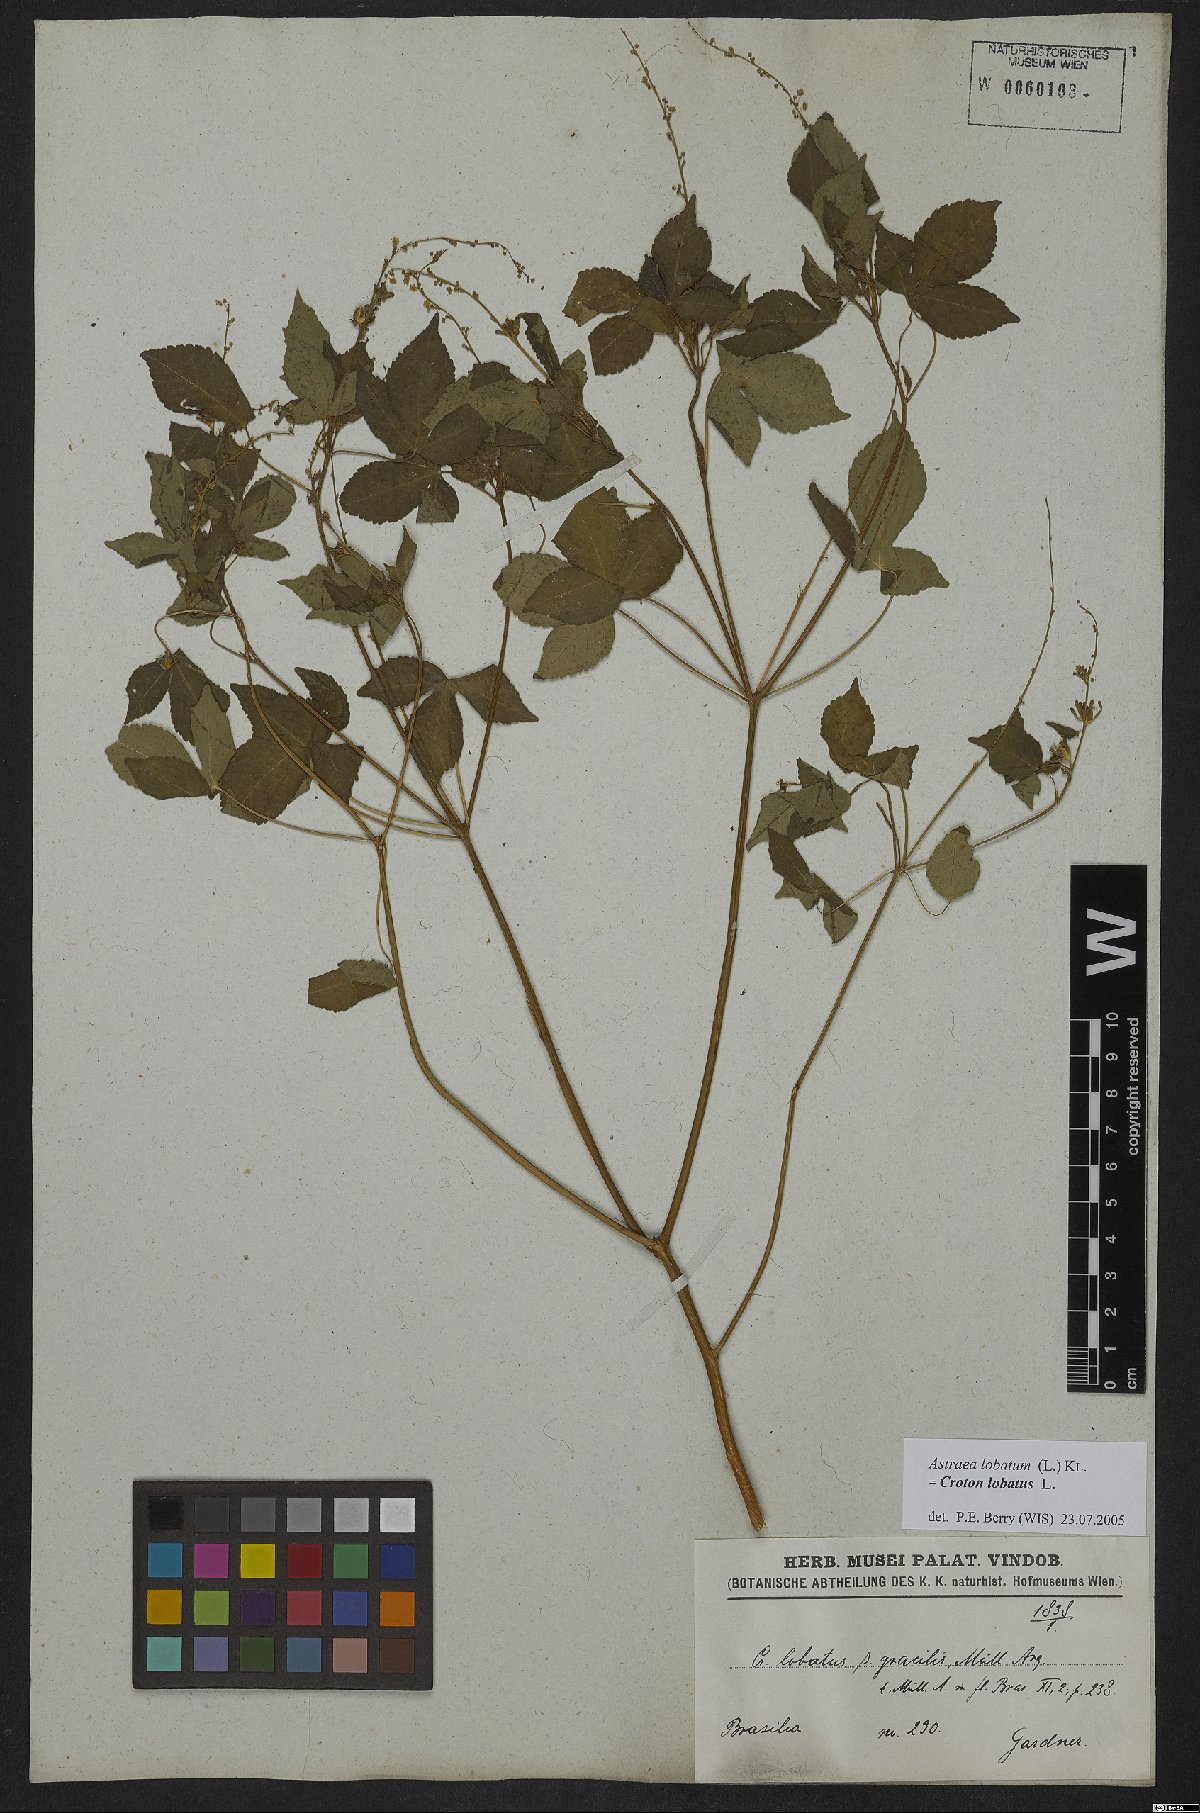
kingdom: Plantae
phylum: Tracheophyta
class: Magnoliopsida
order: Malpighiales
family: Euphorbiaceae
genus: Croton
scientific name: Croton lobatus
